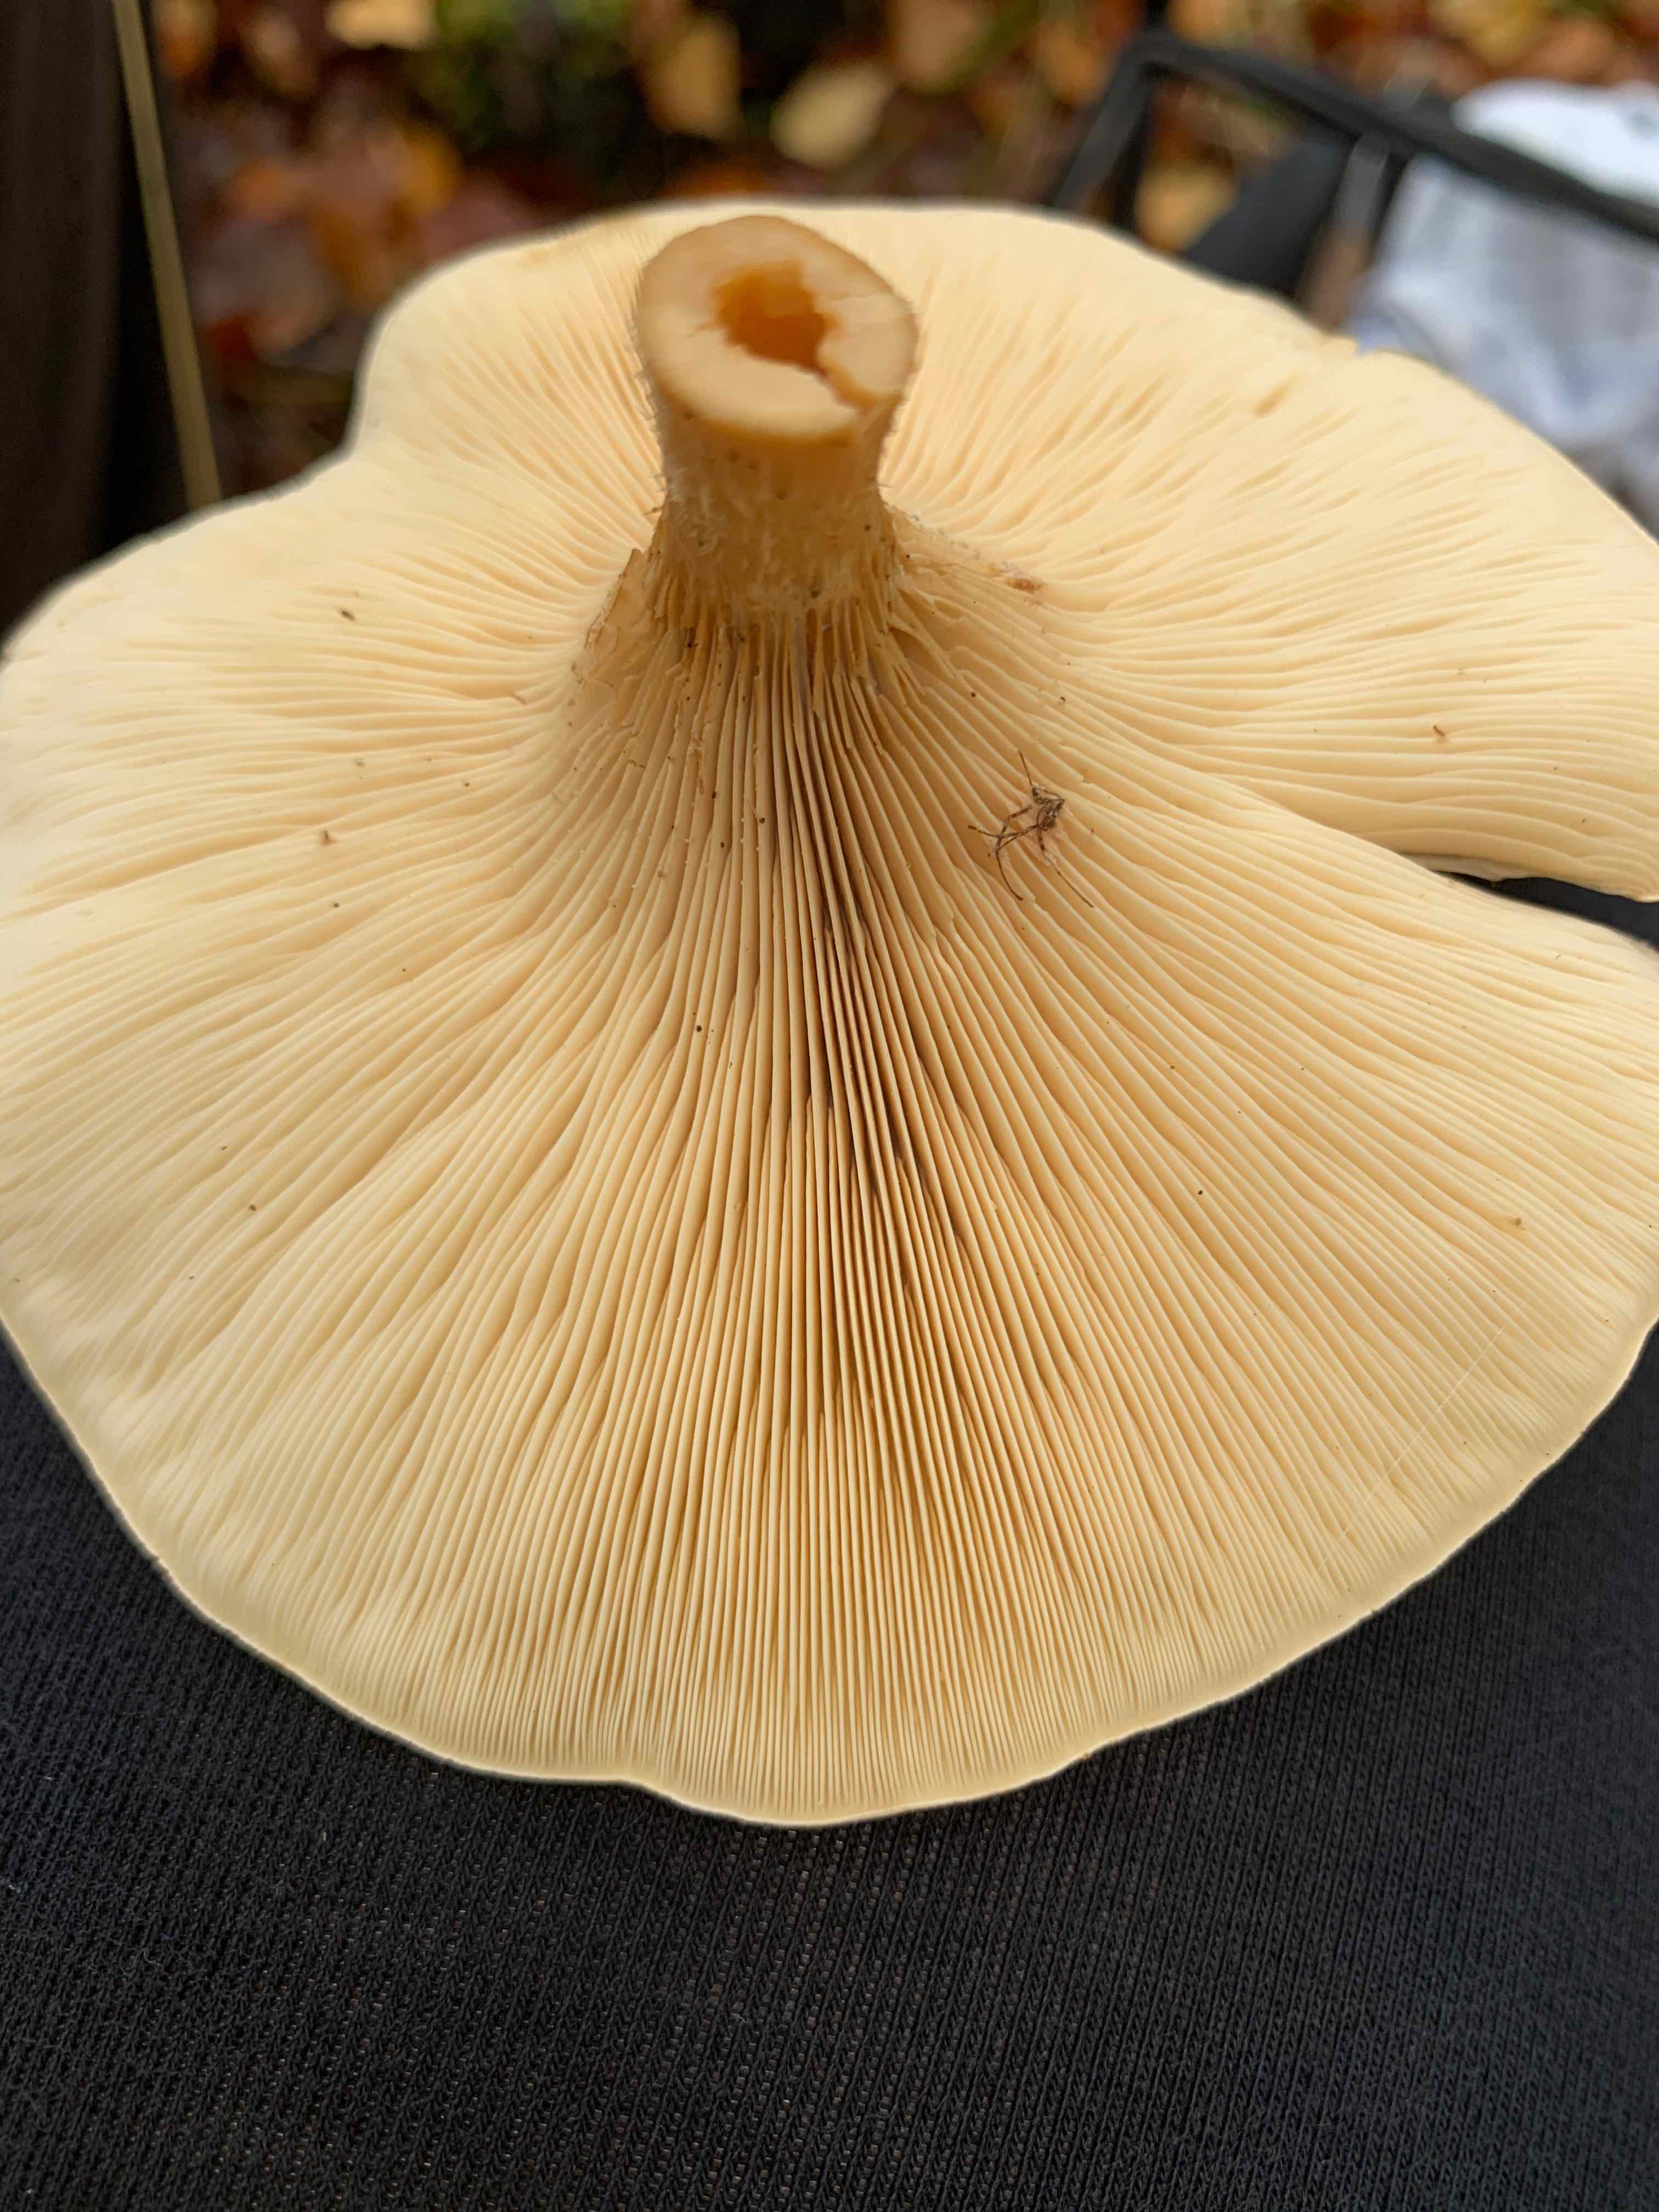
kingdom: Fungi
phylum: Basidiomycota
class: Agaricomycetes
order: Agaricales
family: Tricholomataceae
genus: Paralepista
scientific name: Paralepista flaccida
